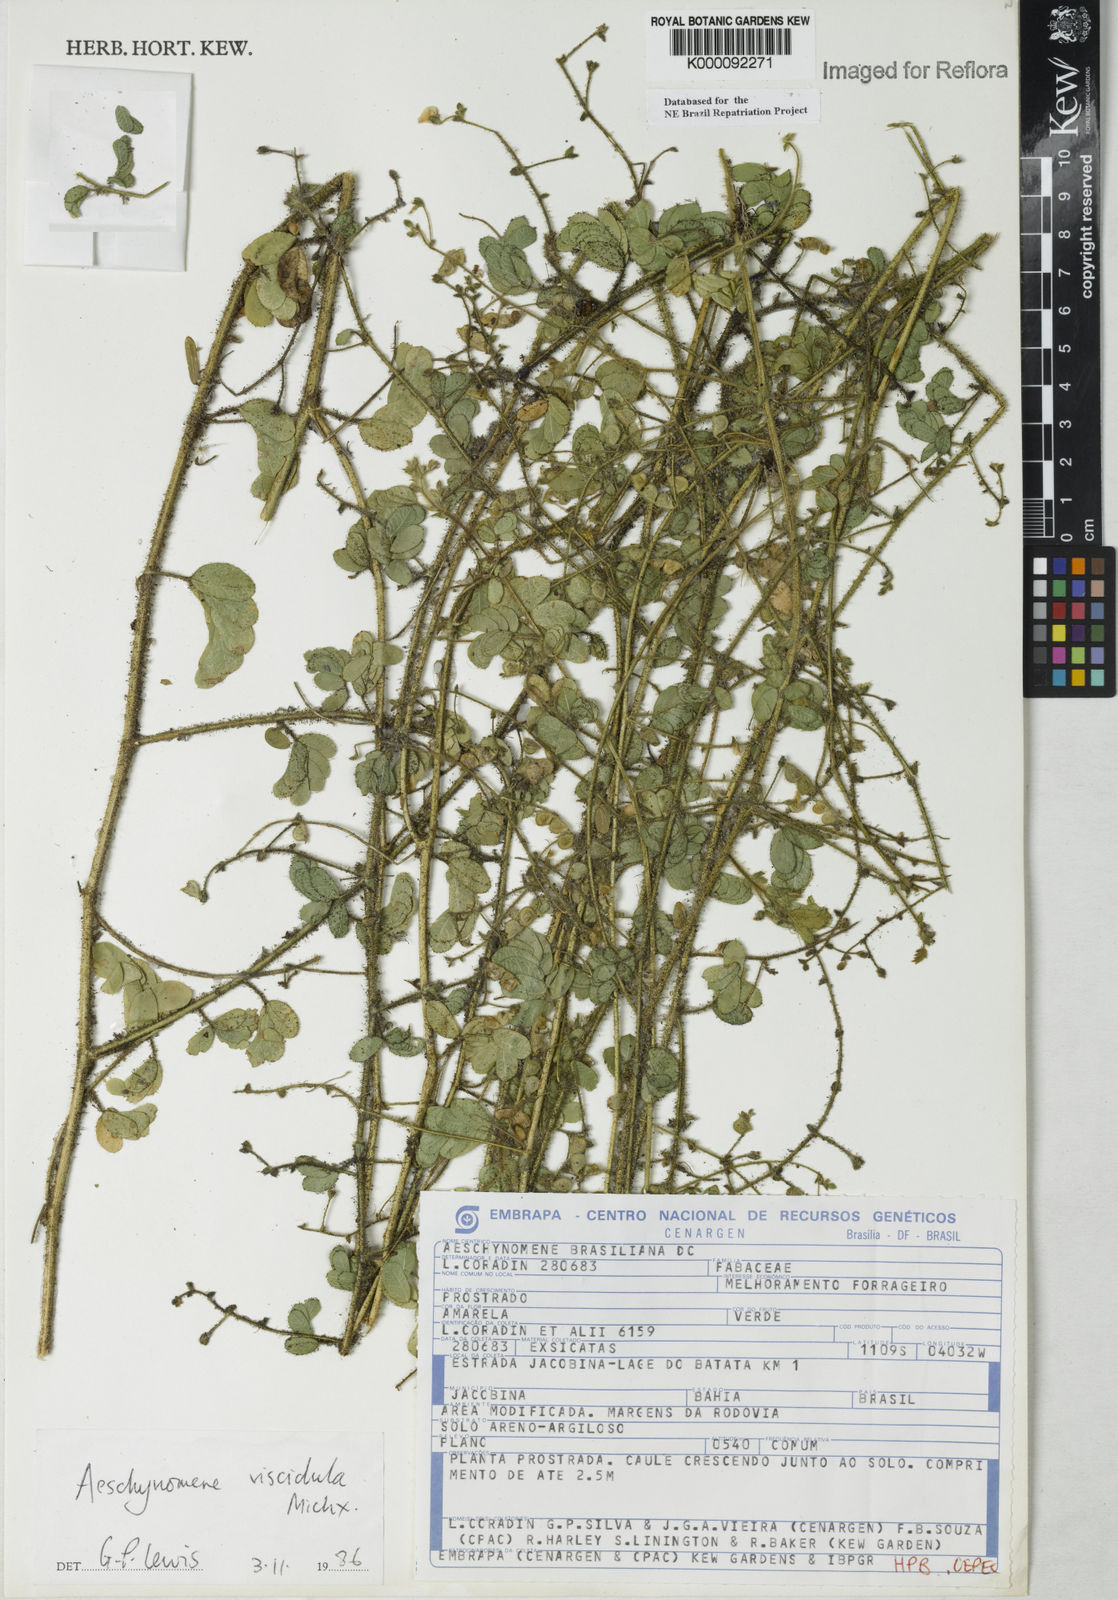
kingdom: Plantae
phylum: Tracheophyta
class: Magnoliopsida
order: Fabales
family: Fabaceae
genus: Ctenodon
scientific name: Ctenodon viscidulus
